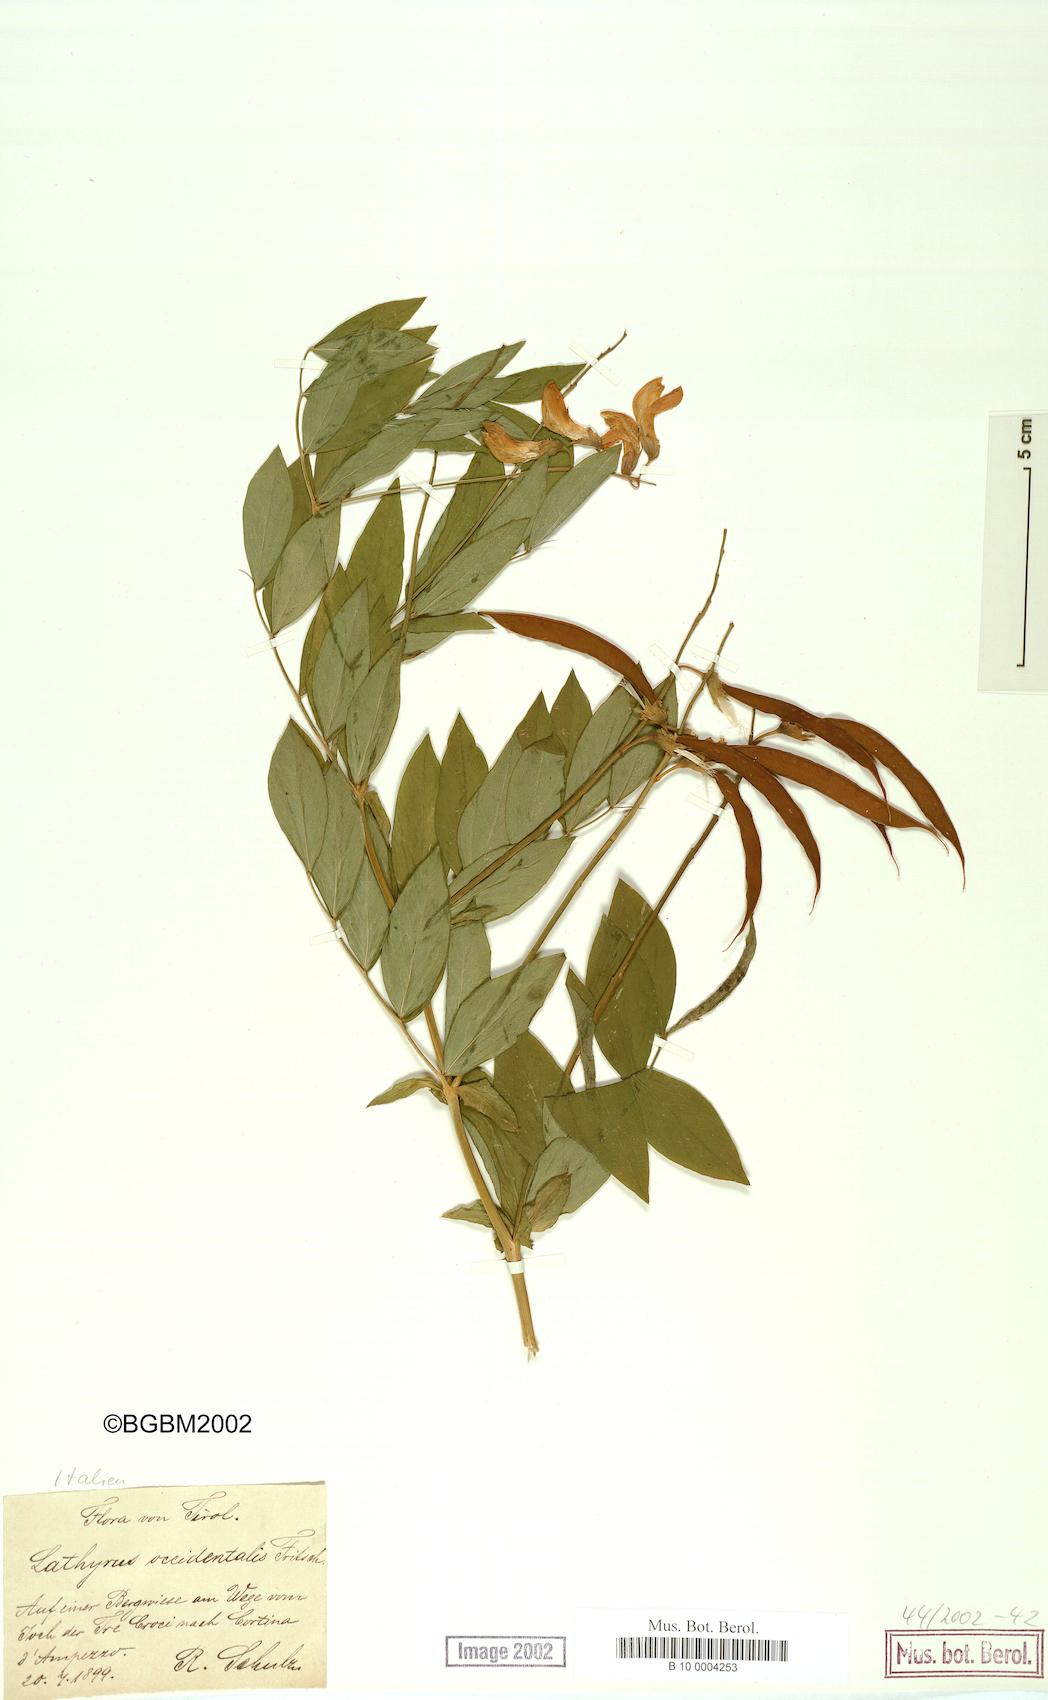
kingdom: Plantae
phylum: Tracheophyta
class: Magnoliopsida
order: Fabales
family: Fabaceae
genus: Lathyrus
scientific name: Lathyrus gmelinii
